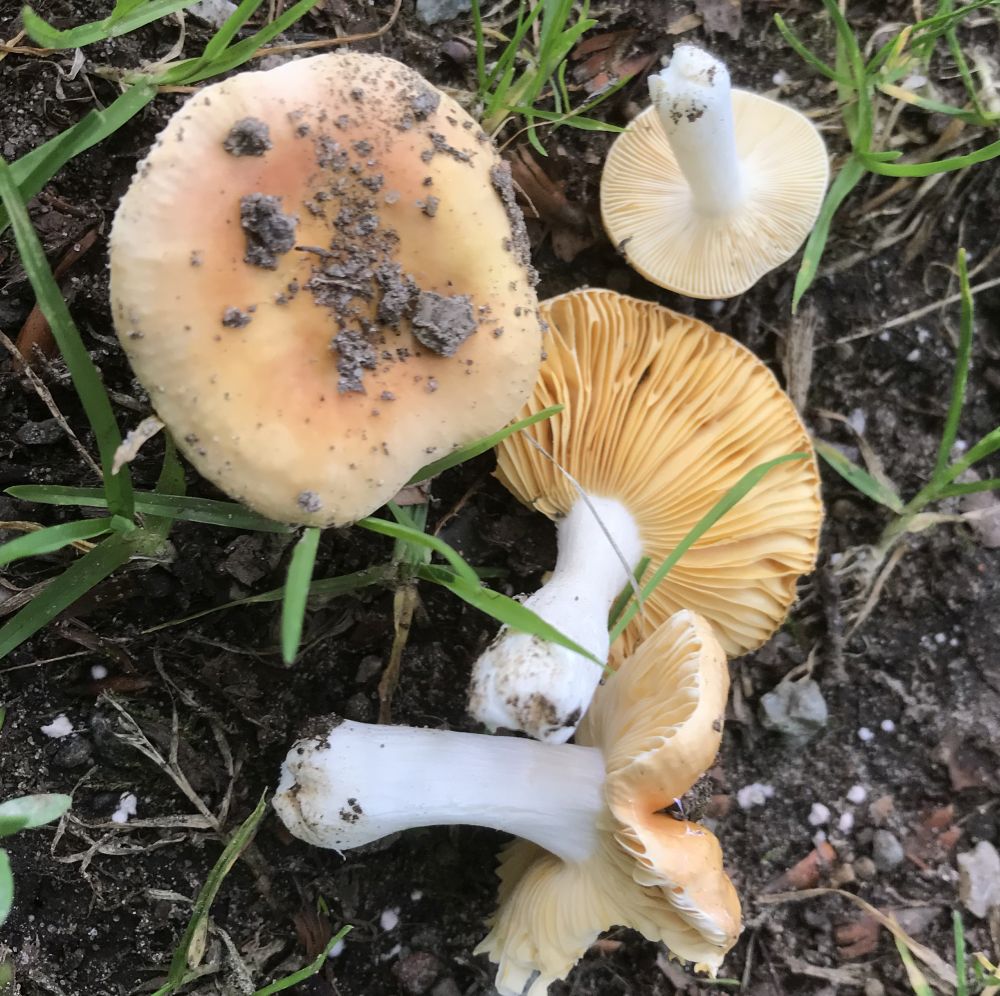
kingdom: Fungi
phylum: Basidiomycota
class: Agaricomycetes
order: Russulales
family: Russulaceae
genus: Russula
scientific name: Russula risigallina
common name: abrikos-skørhat
